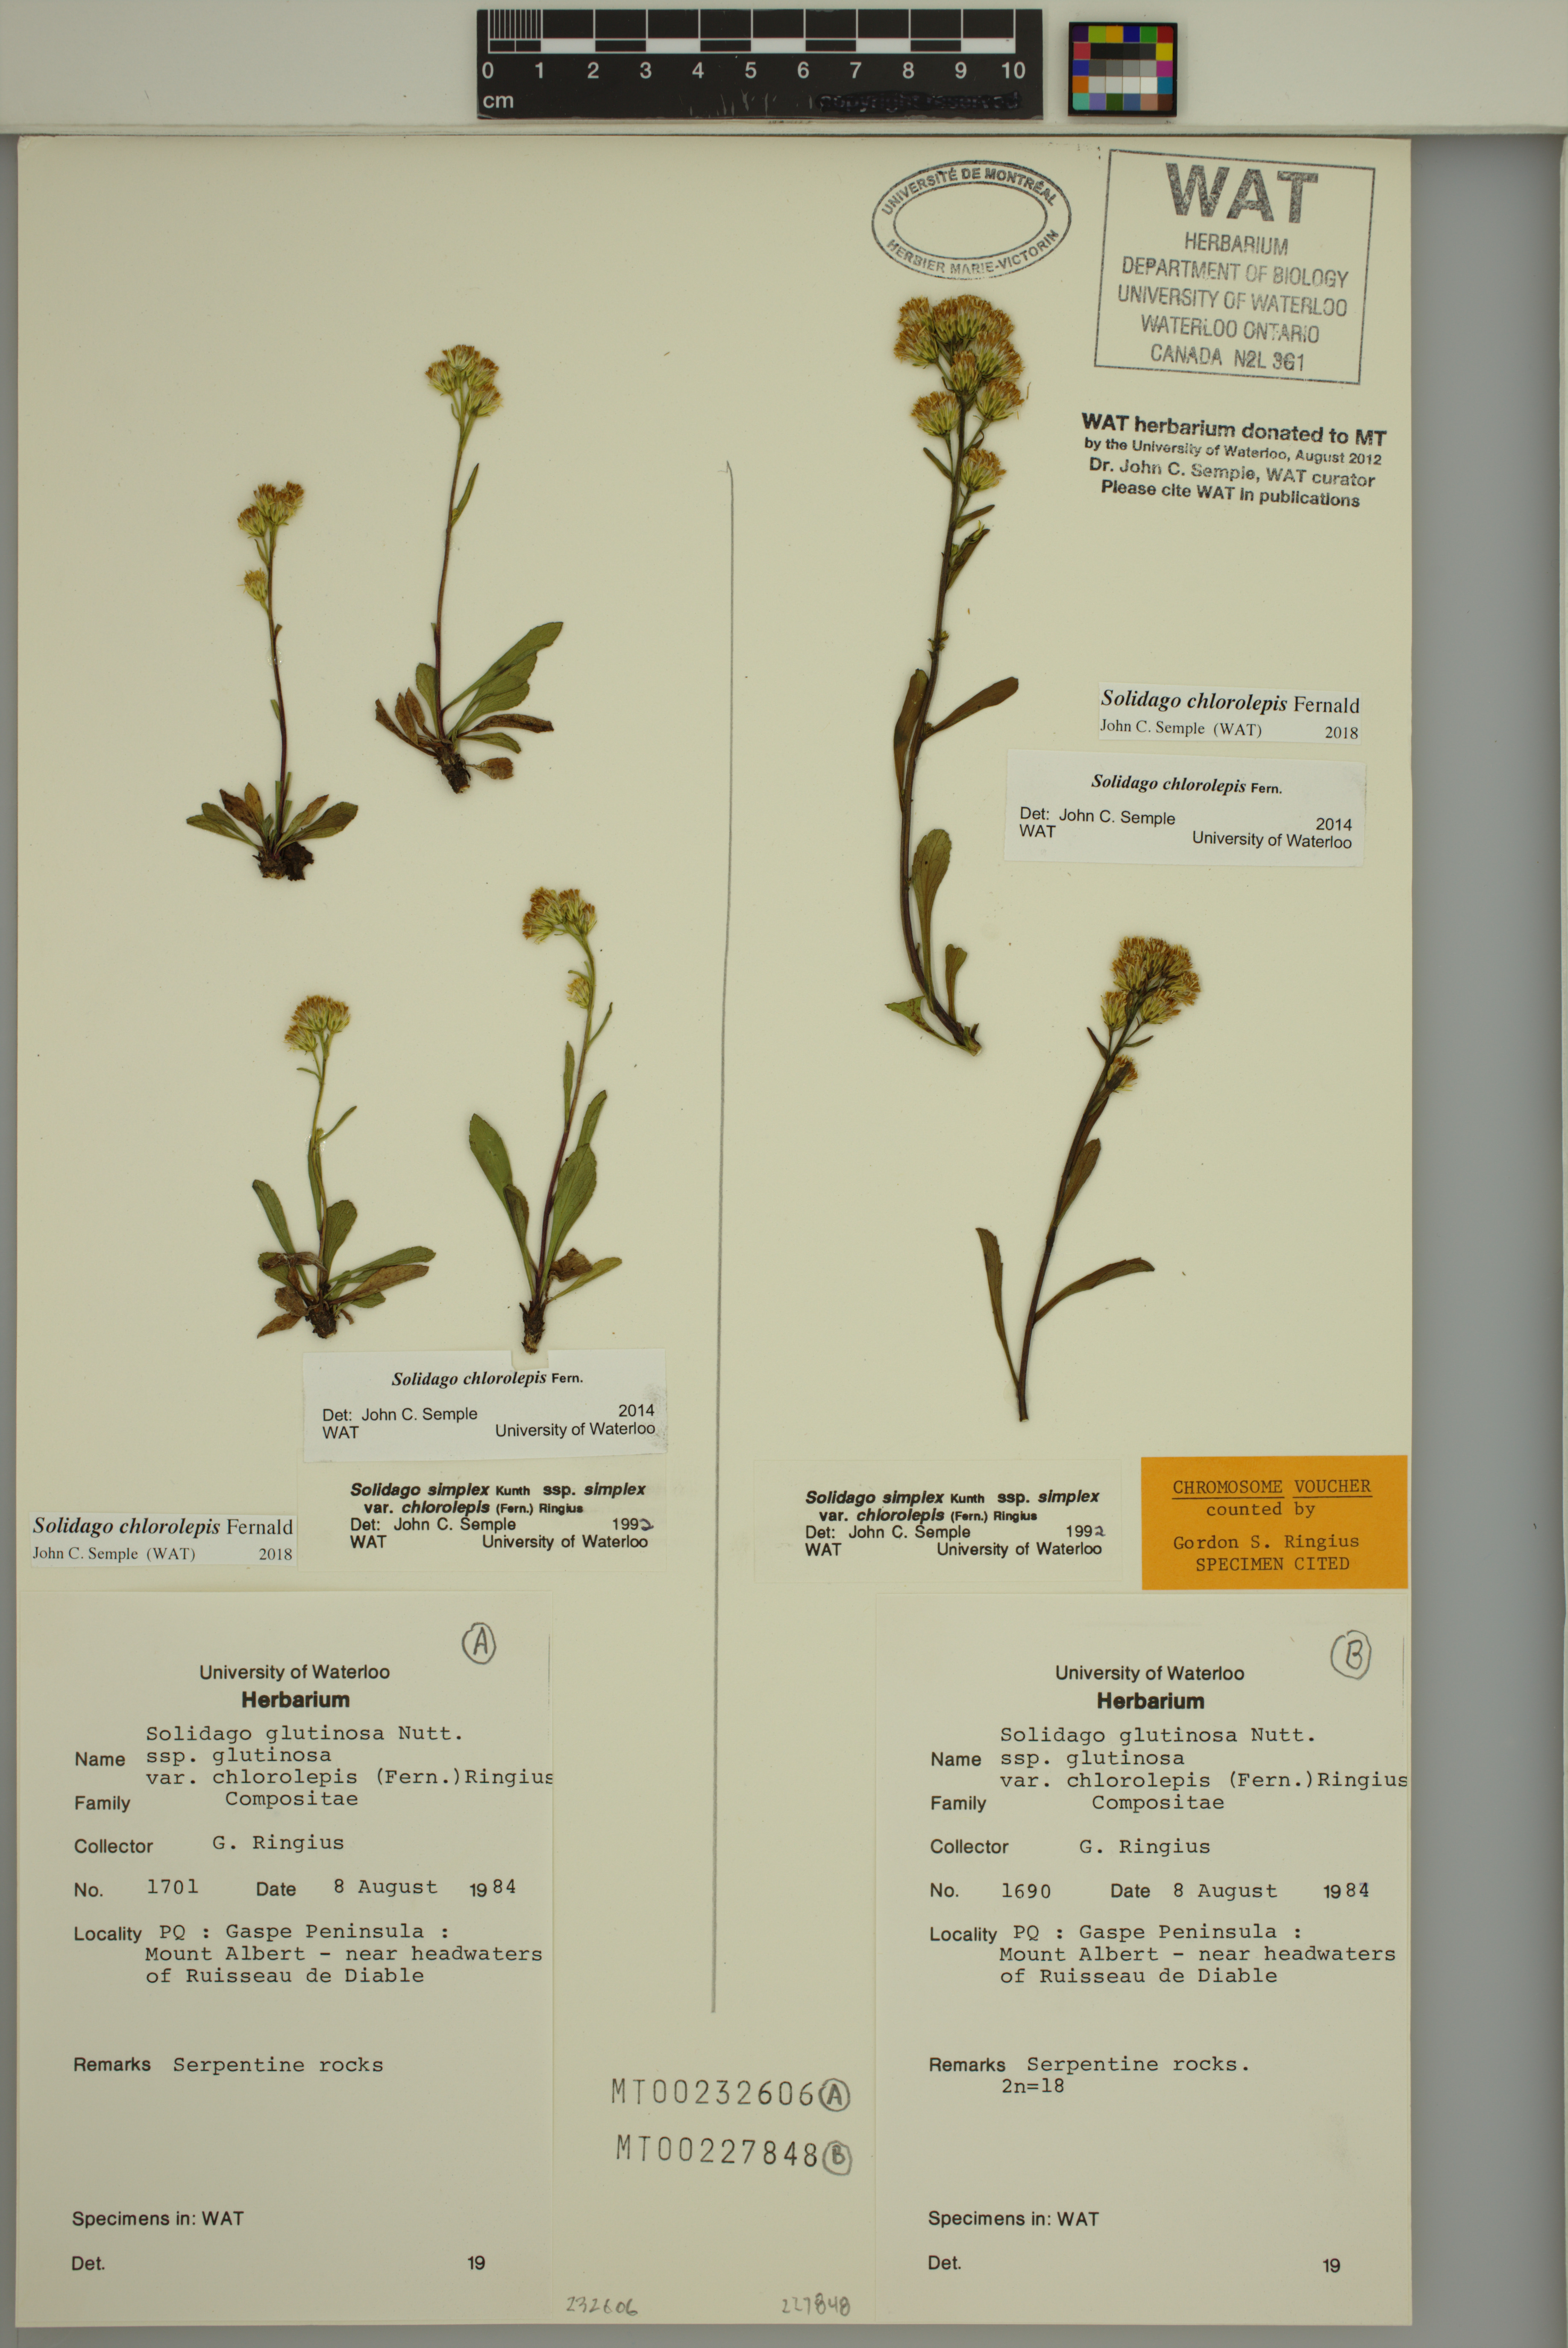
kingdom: Plantae
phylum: Tracheophyta
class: Magnoliopsida
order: Asterales
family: Asteraceae
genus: Solidago
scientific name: Solidago chlorolepis
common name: Mt. albert goldenrod
